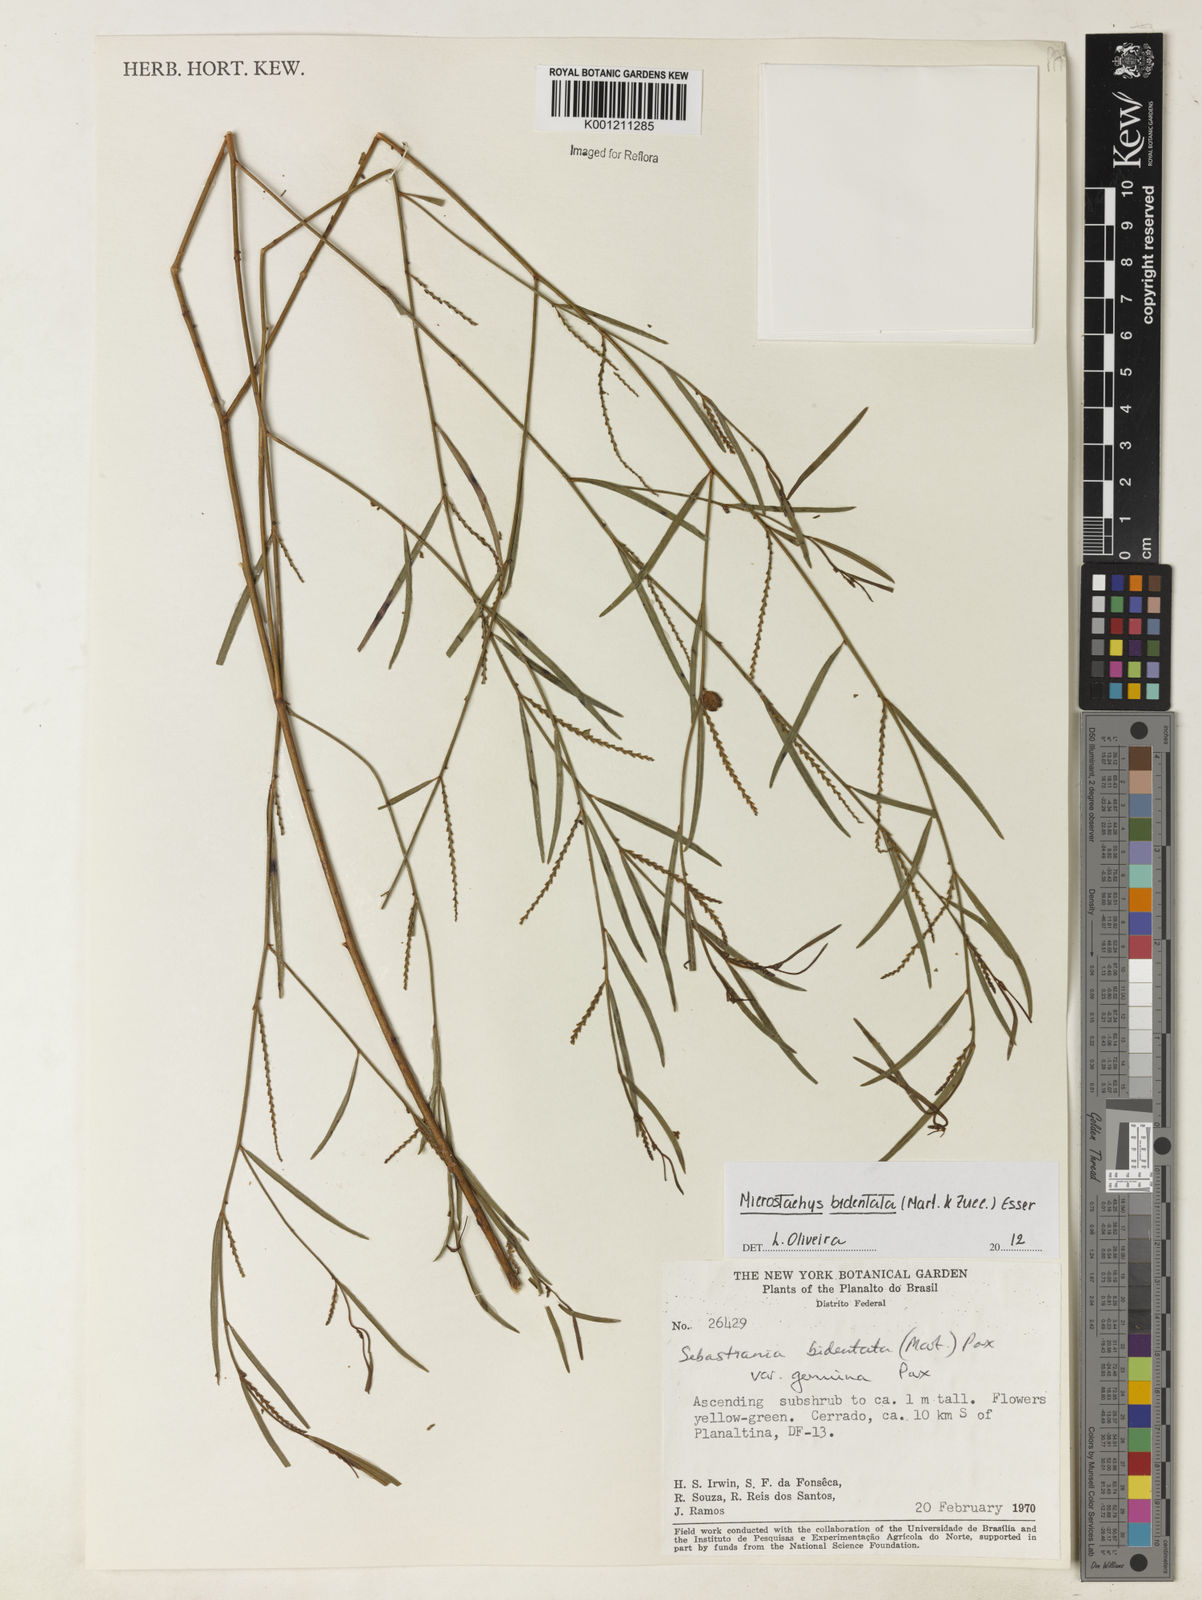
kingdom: Plantae
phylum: Tracheophyta
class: Magnoliopsida
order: Malpighiales
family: Euphorbiaceae
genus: Microstachys
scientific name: Microstachys bidentata
